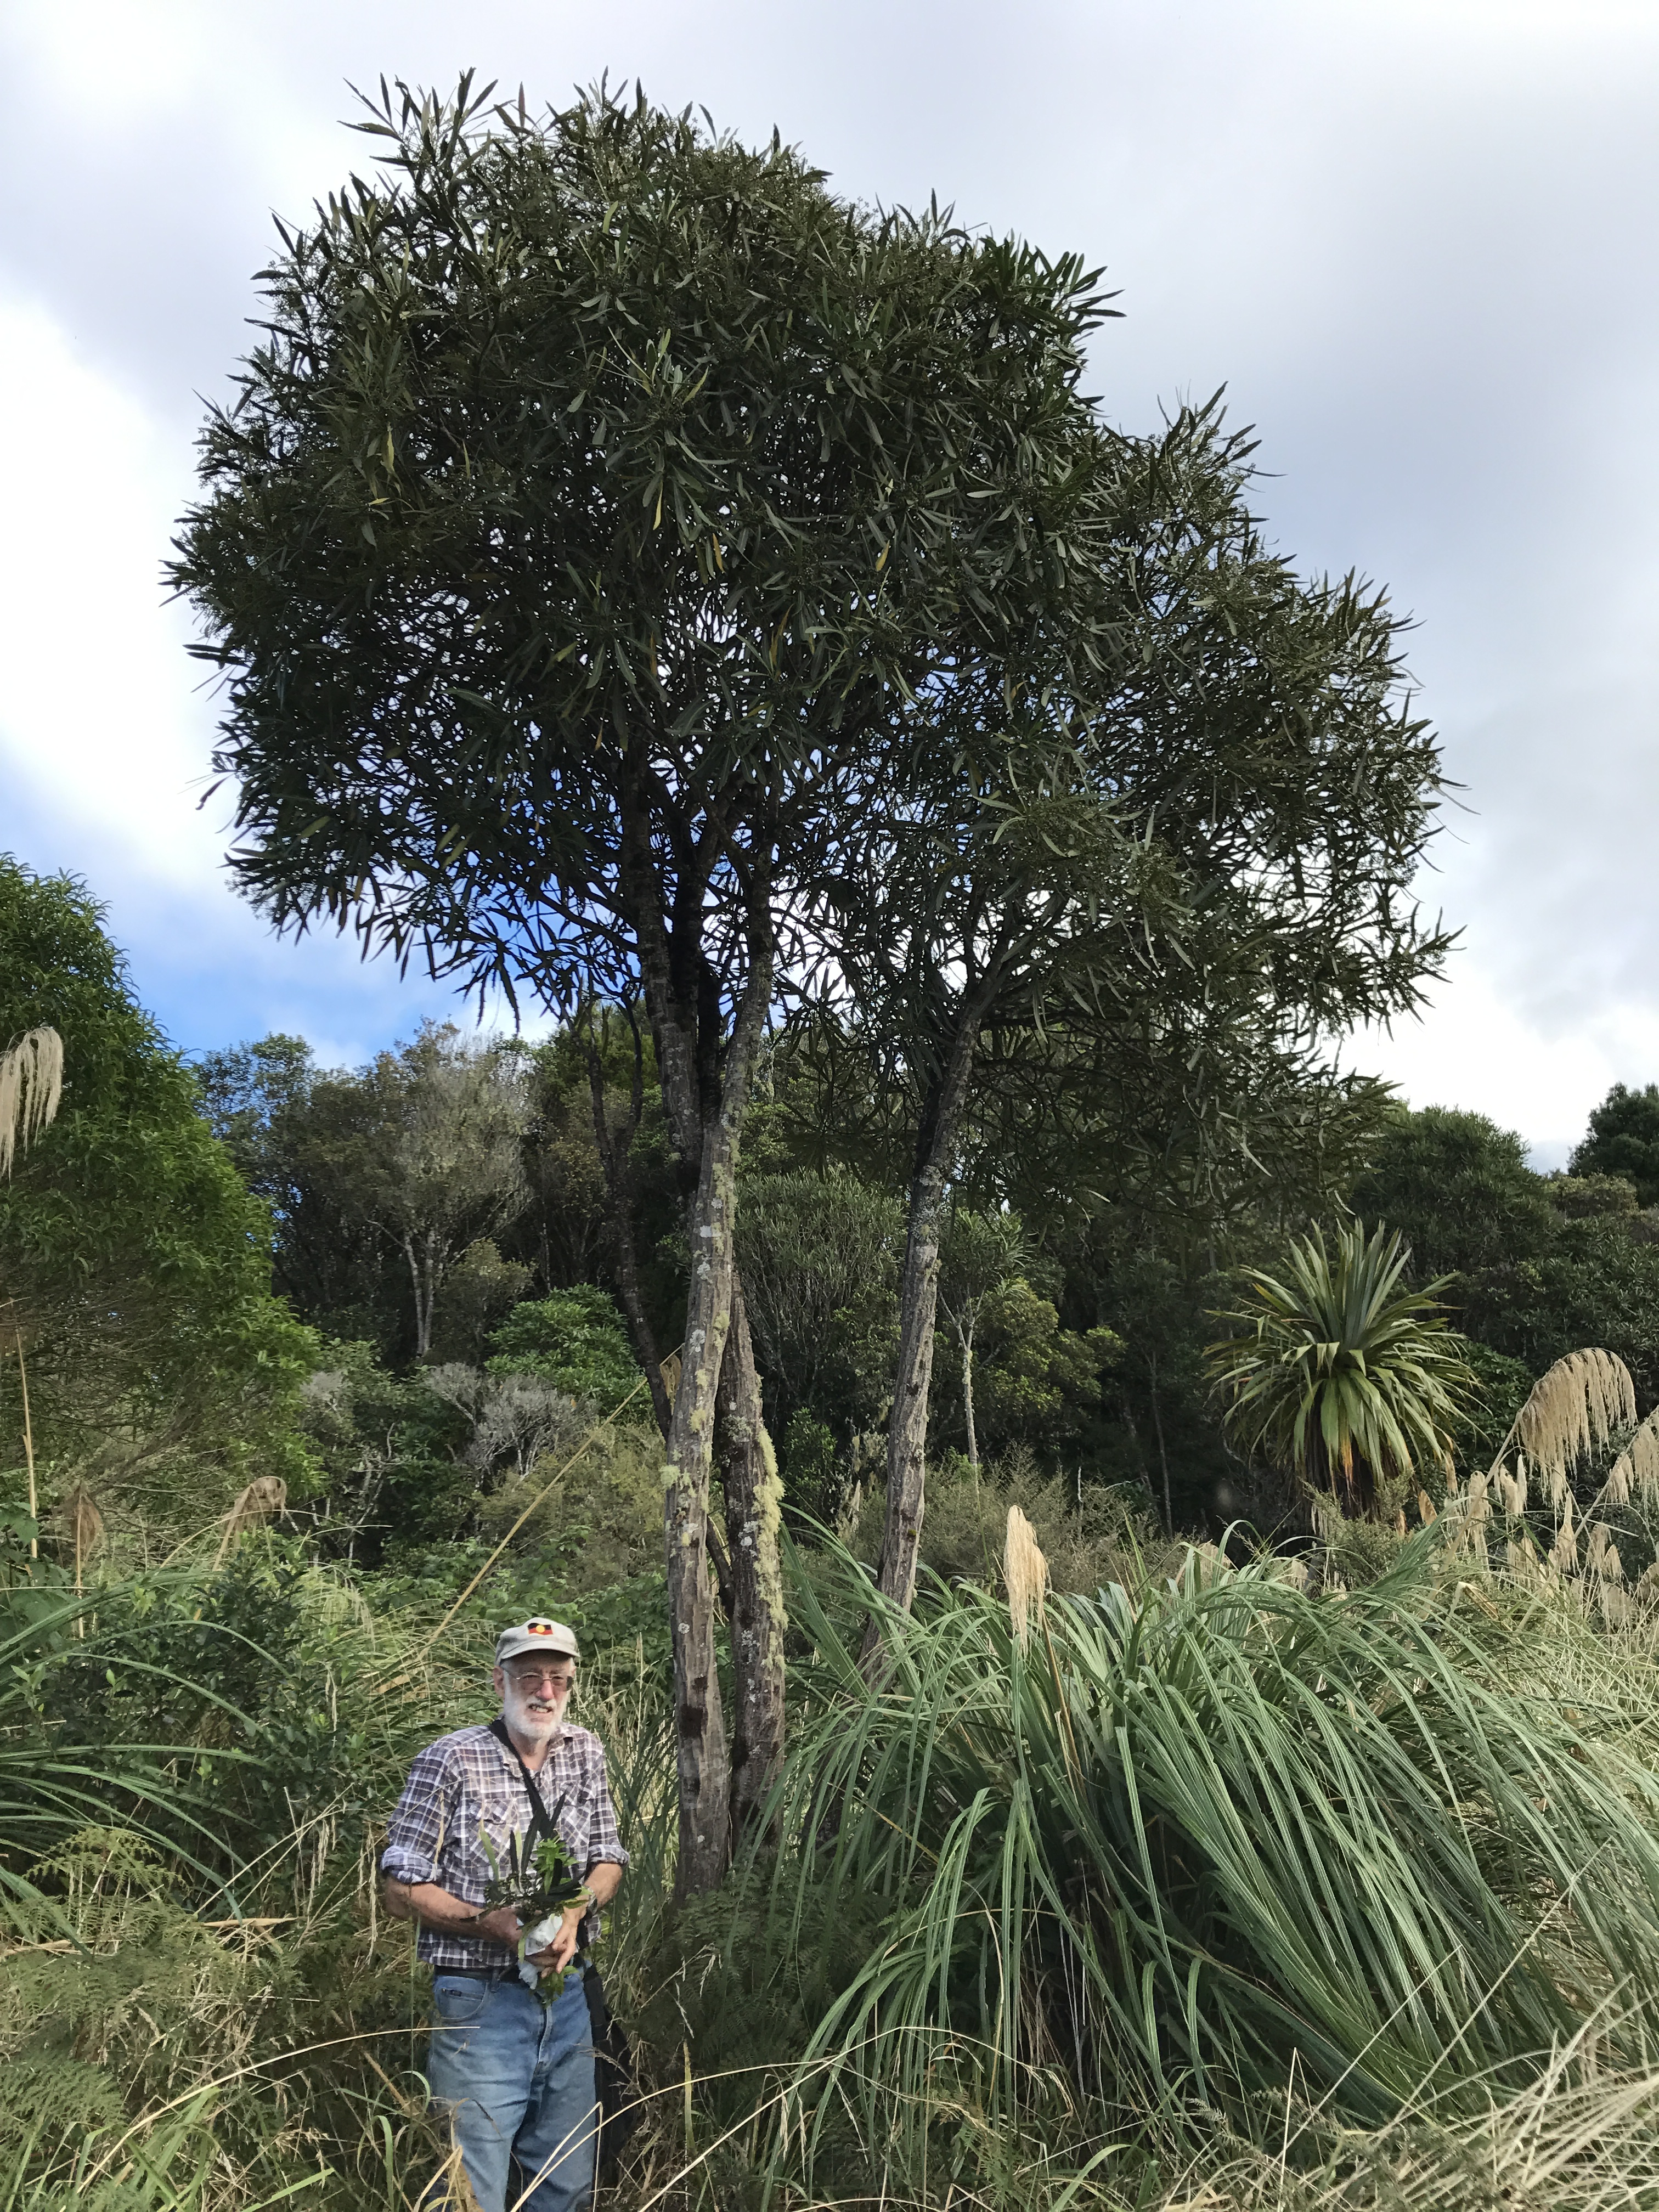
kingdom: Plantae
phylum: Tracheophyta
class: Magnoliopsida
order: Apiales
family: Araliaceae
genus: Pseudopanax
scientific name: Pseudopanax crassifolius
